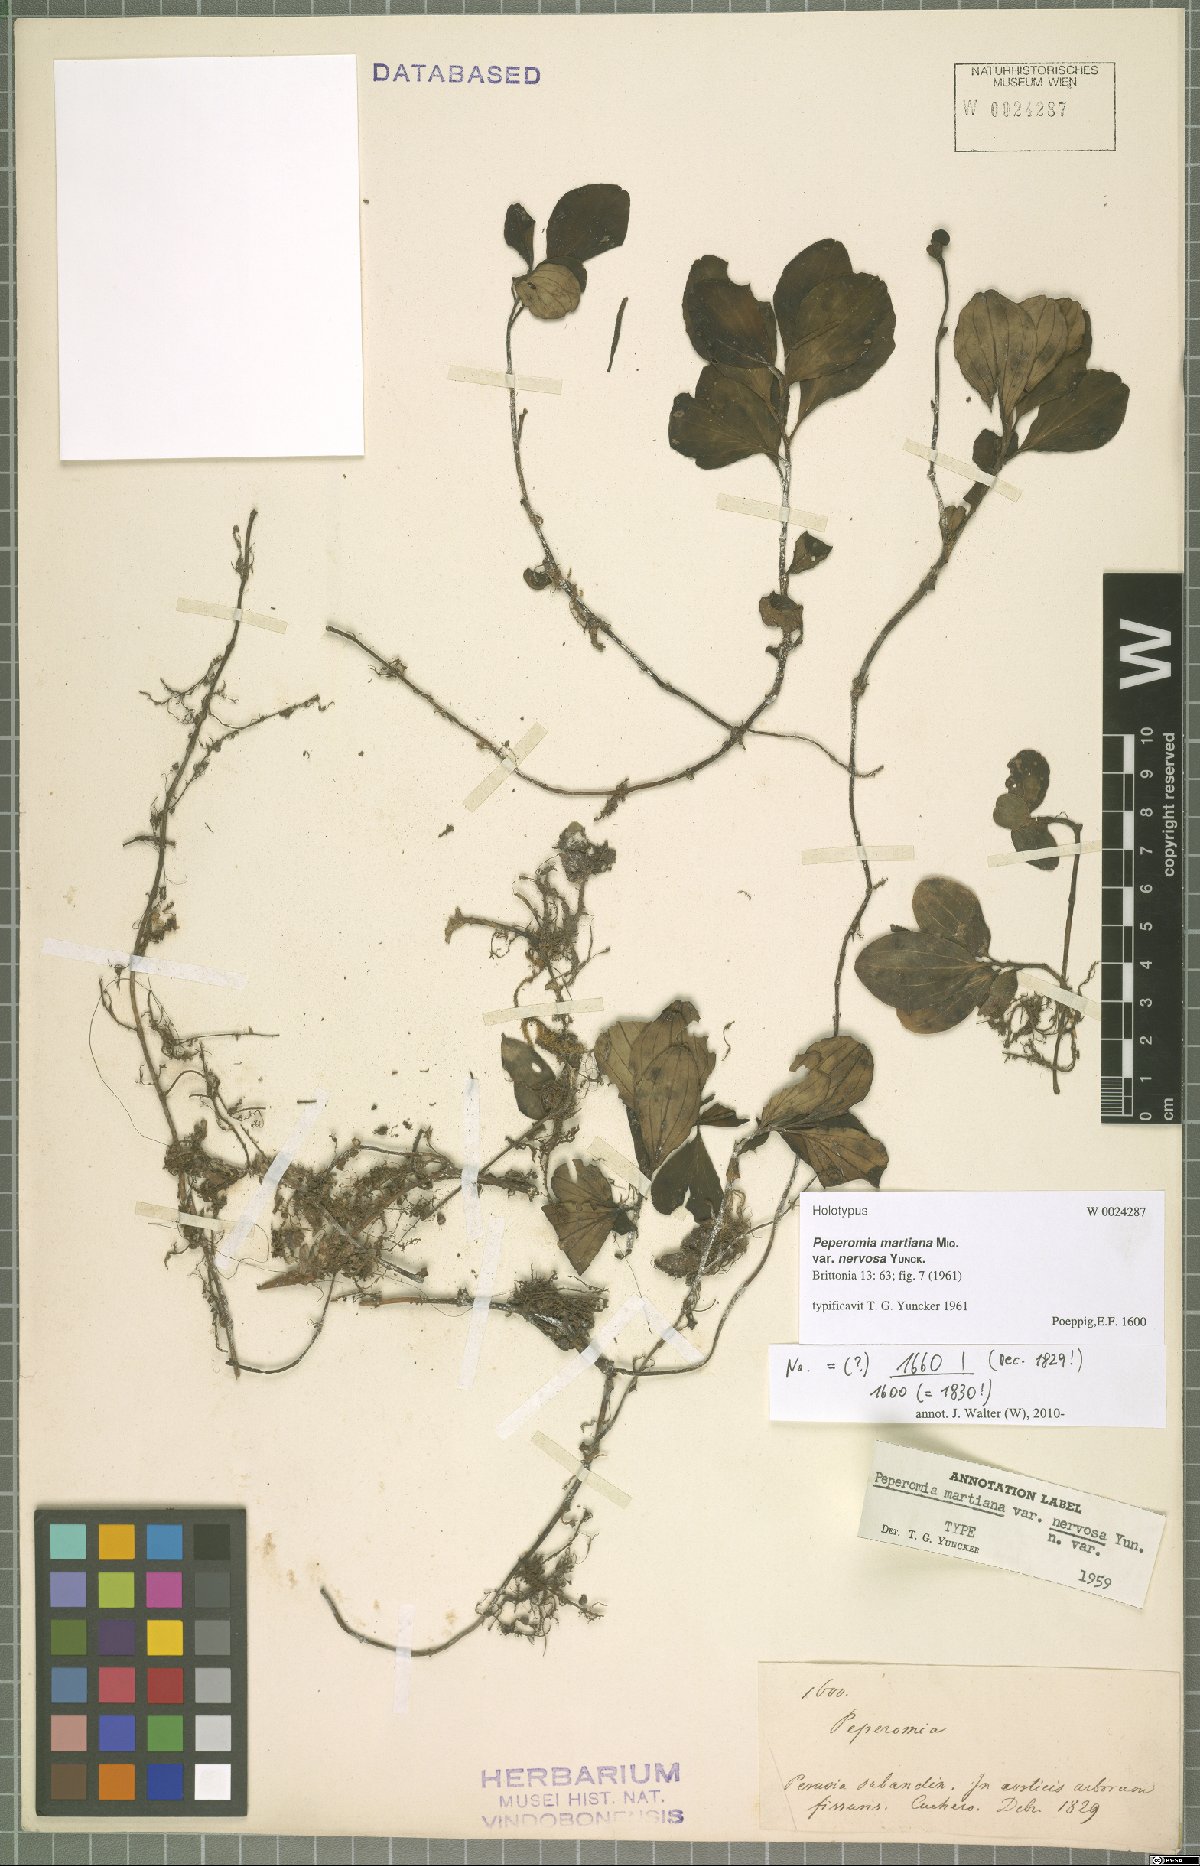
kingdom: Plantae
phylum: Tracheophyta
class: Magnoliopsida
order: Piperales
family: Piperaceae
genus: Peperomia
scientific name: Peperomia martiana
